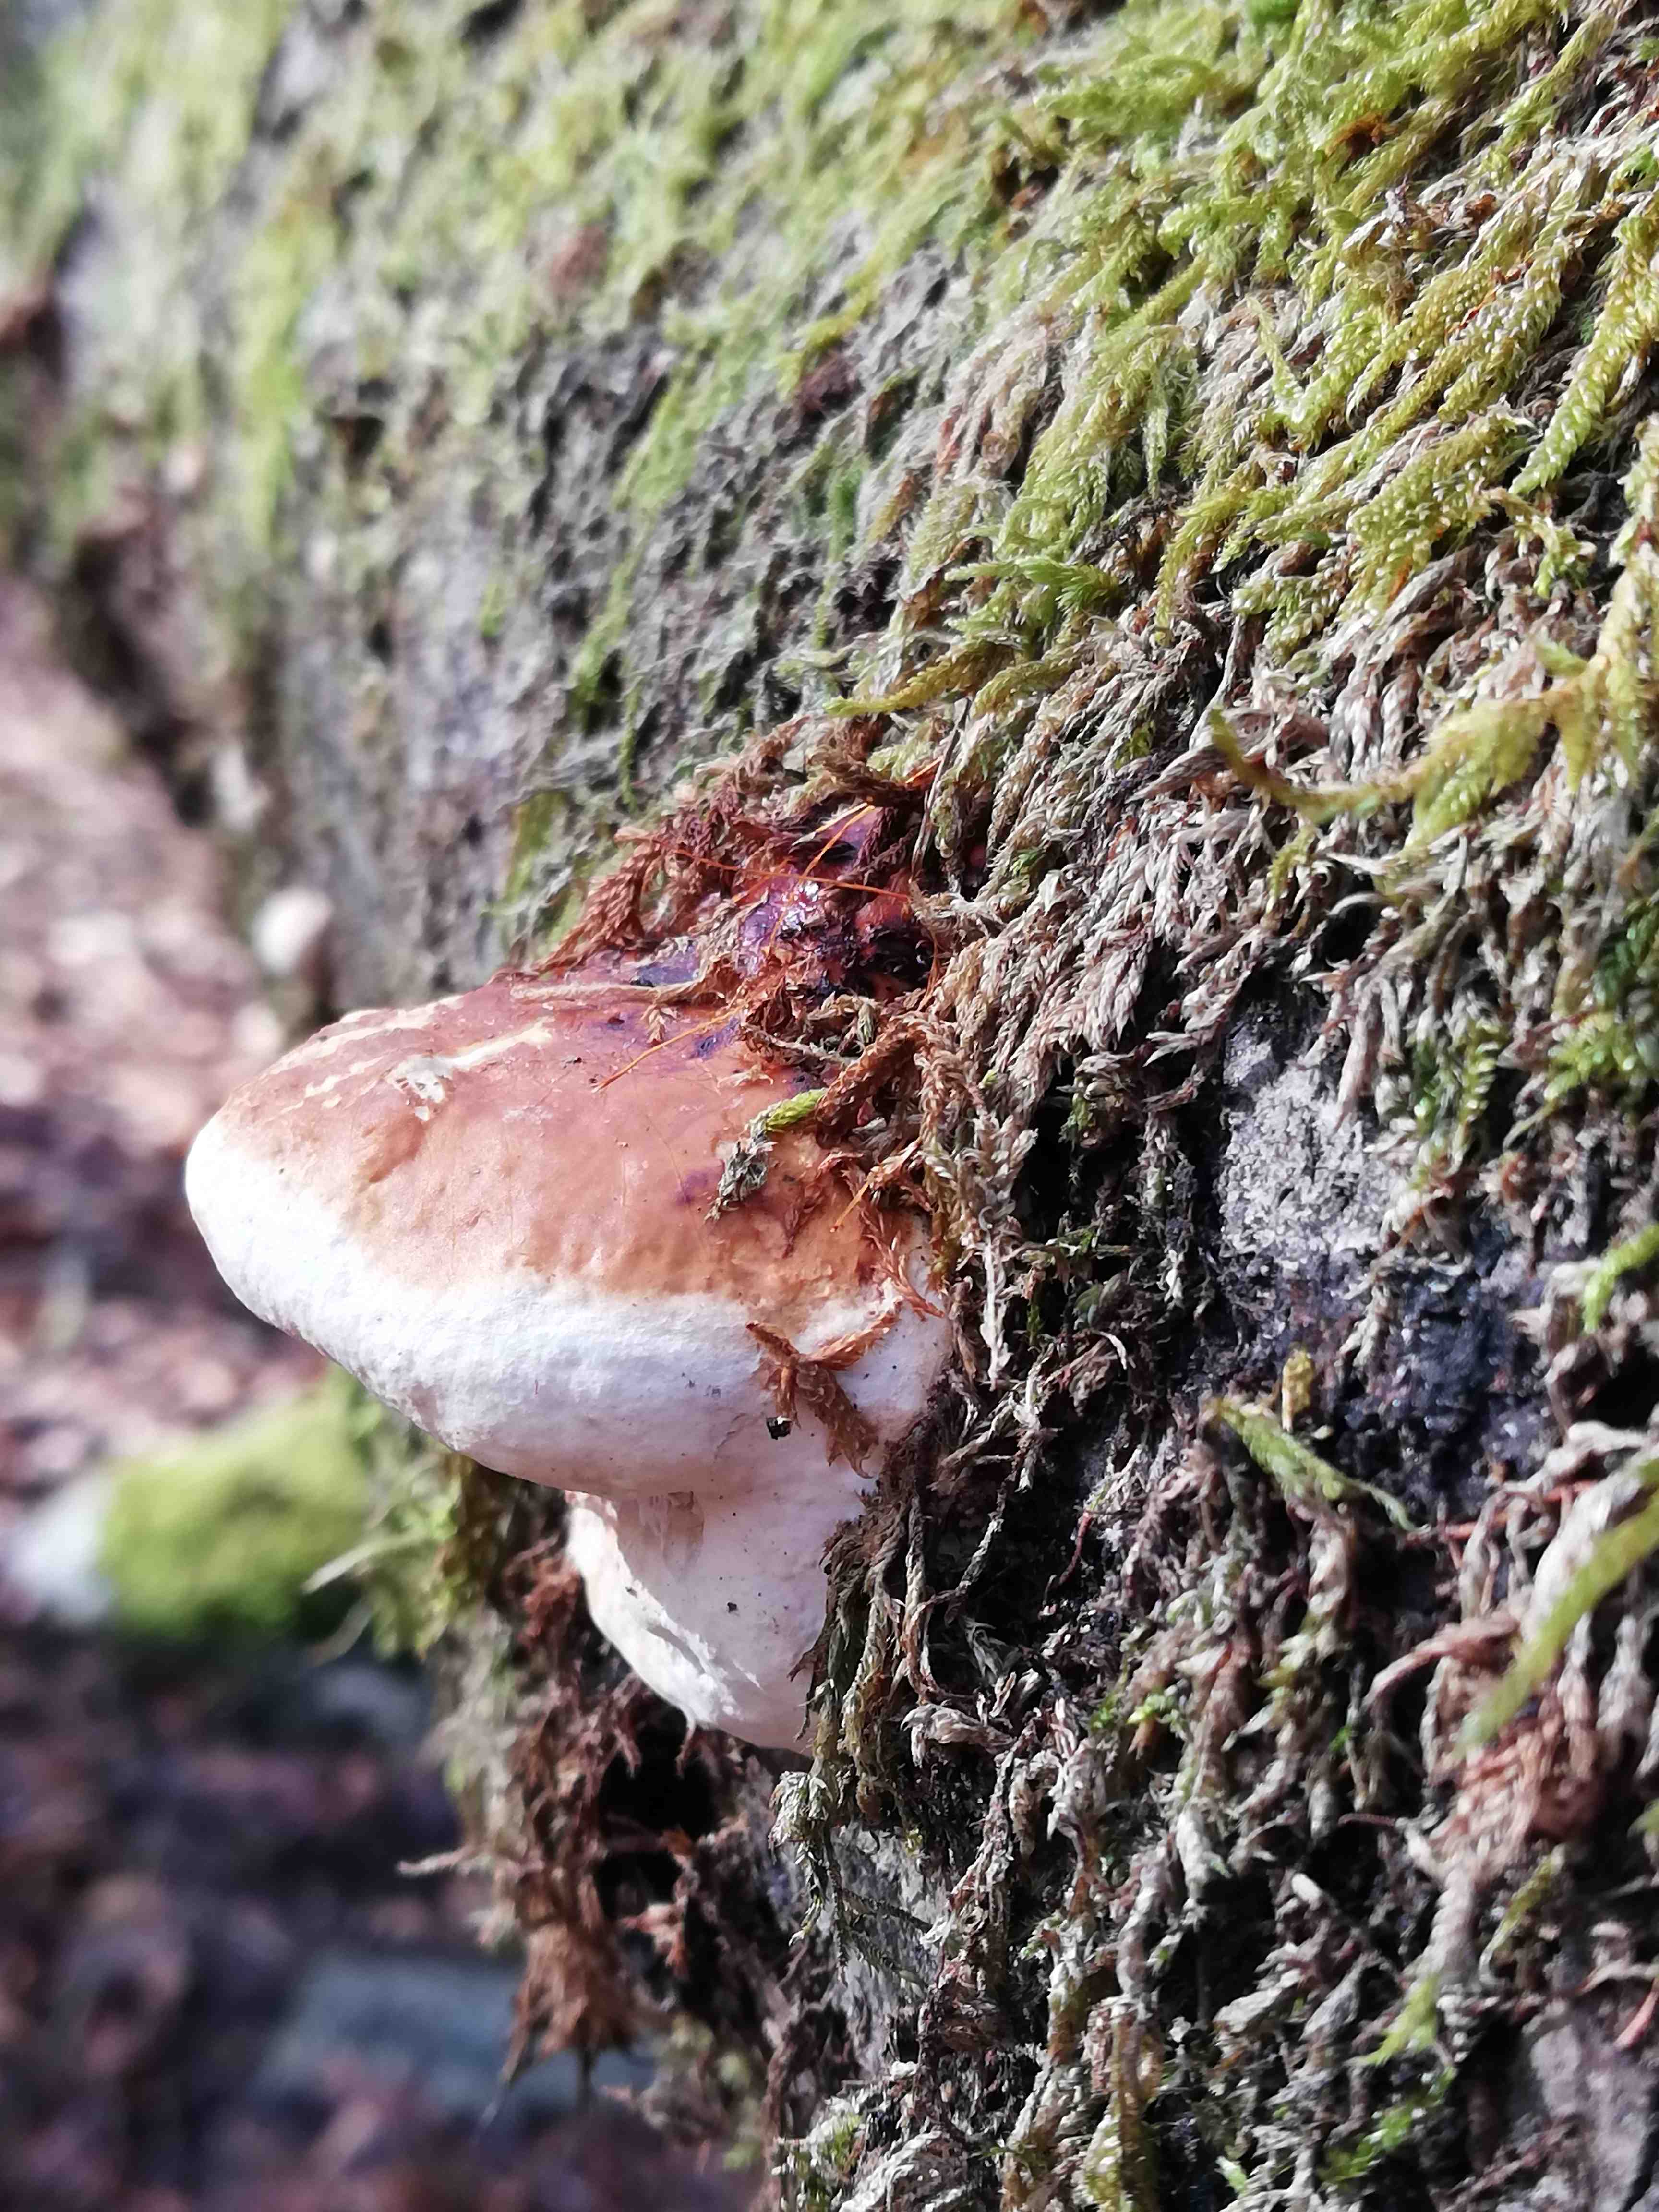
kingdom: Fungi
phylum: Basidiomycota
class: Agaricomycetes
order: Polyporales
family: Fomitopsidaceae
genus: Fomitopsis
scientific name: Fomitopsis pinicola
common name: randbæltet hovporesvamp
